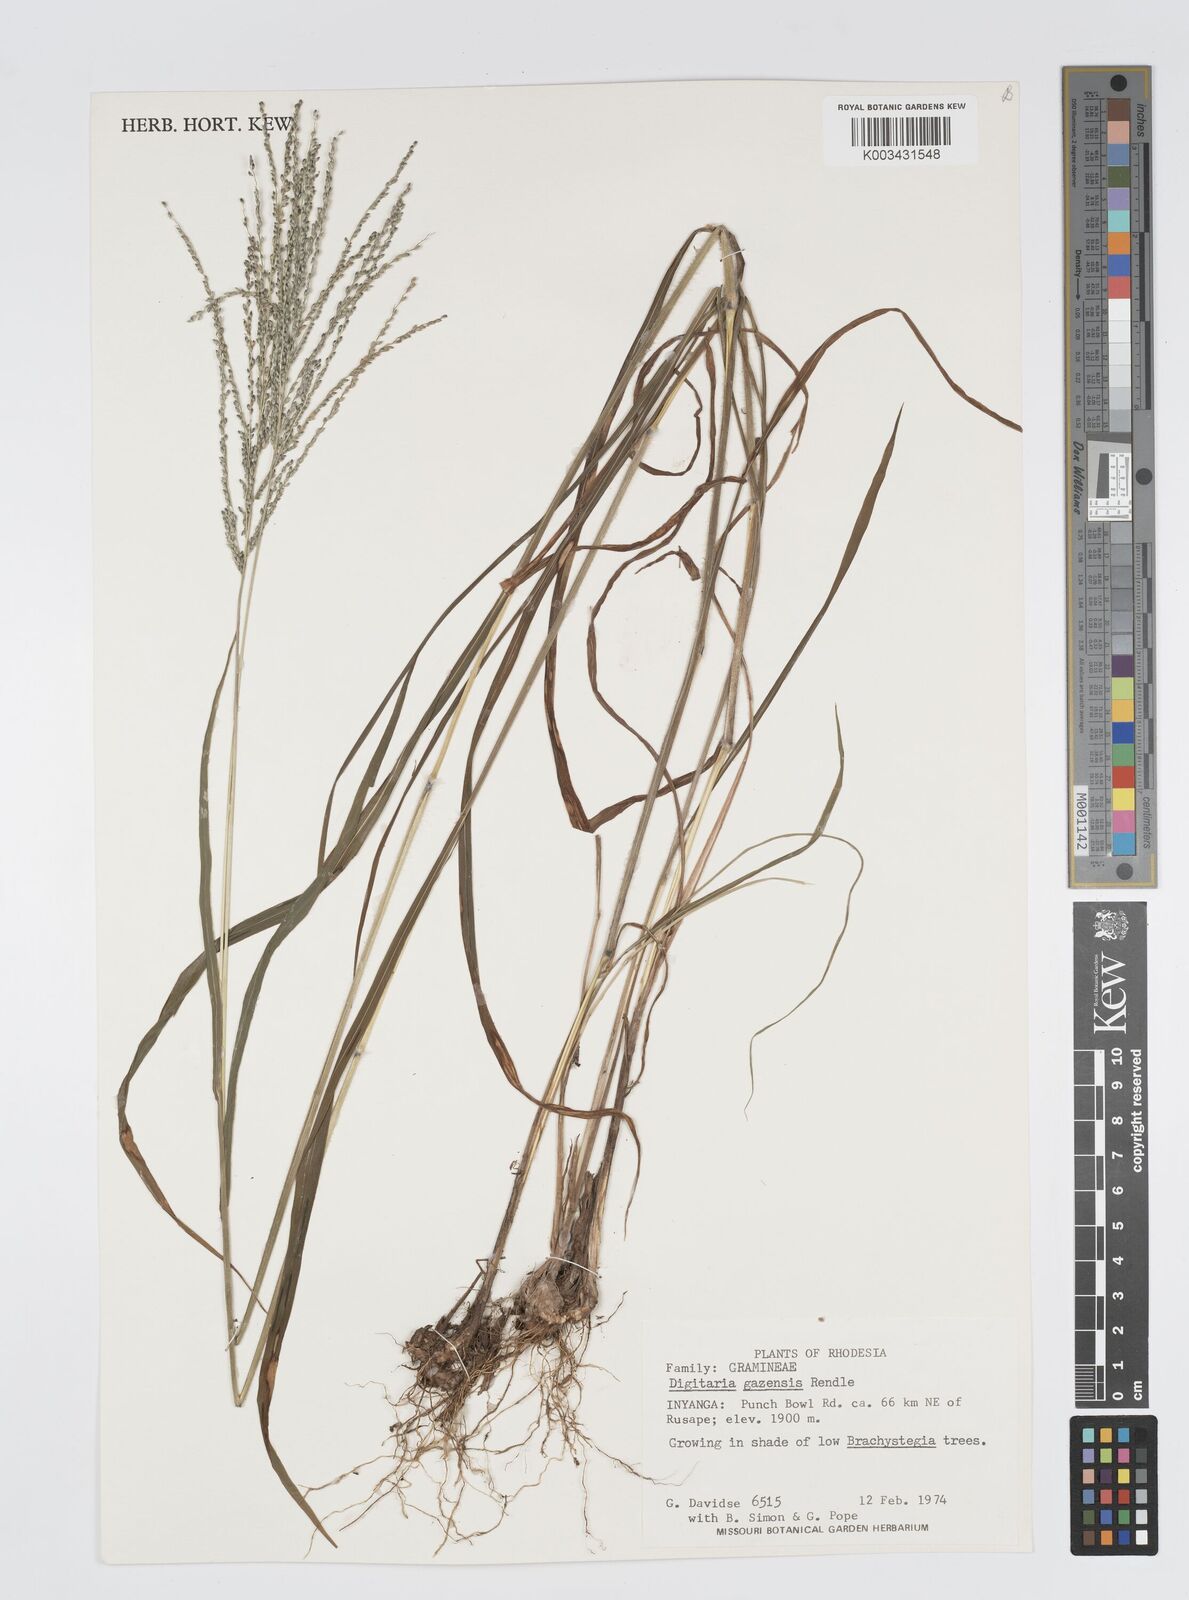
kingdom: Plantae
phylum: Tracheophyta
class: Liliopsida
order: Poales
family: Poaceae
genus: Digitaria
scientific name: Digitaria gazensis
